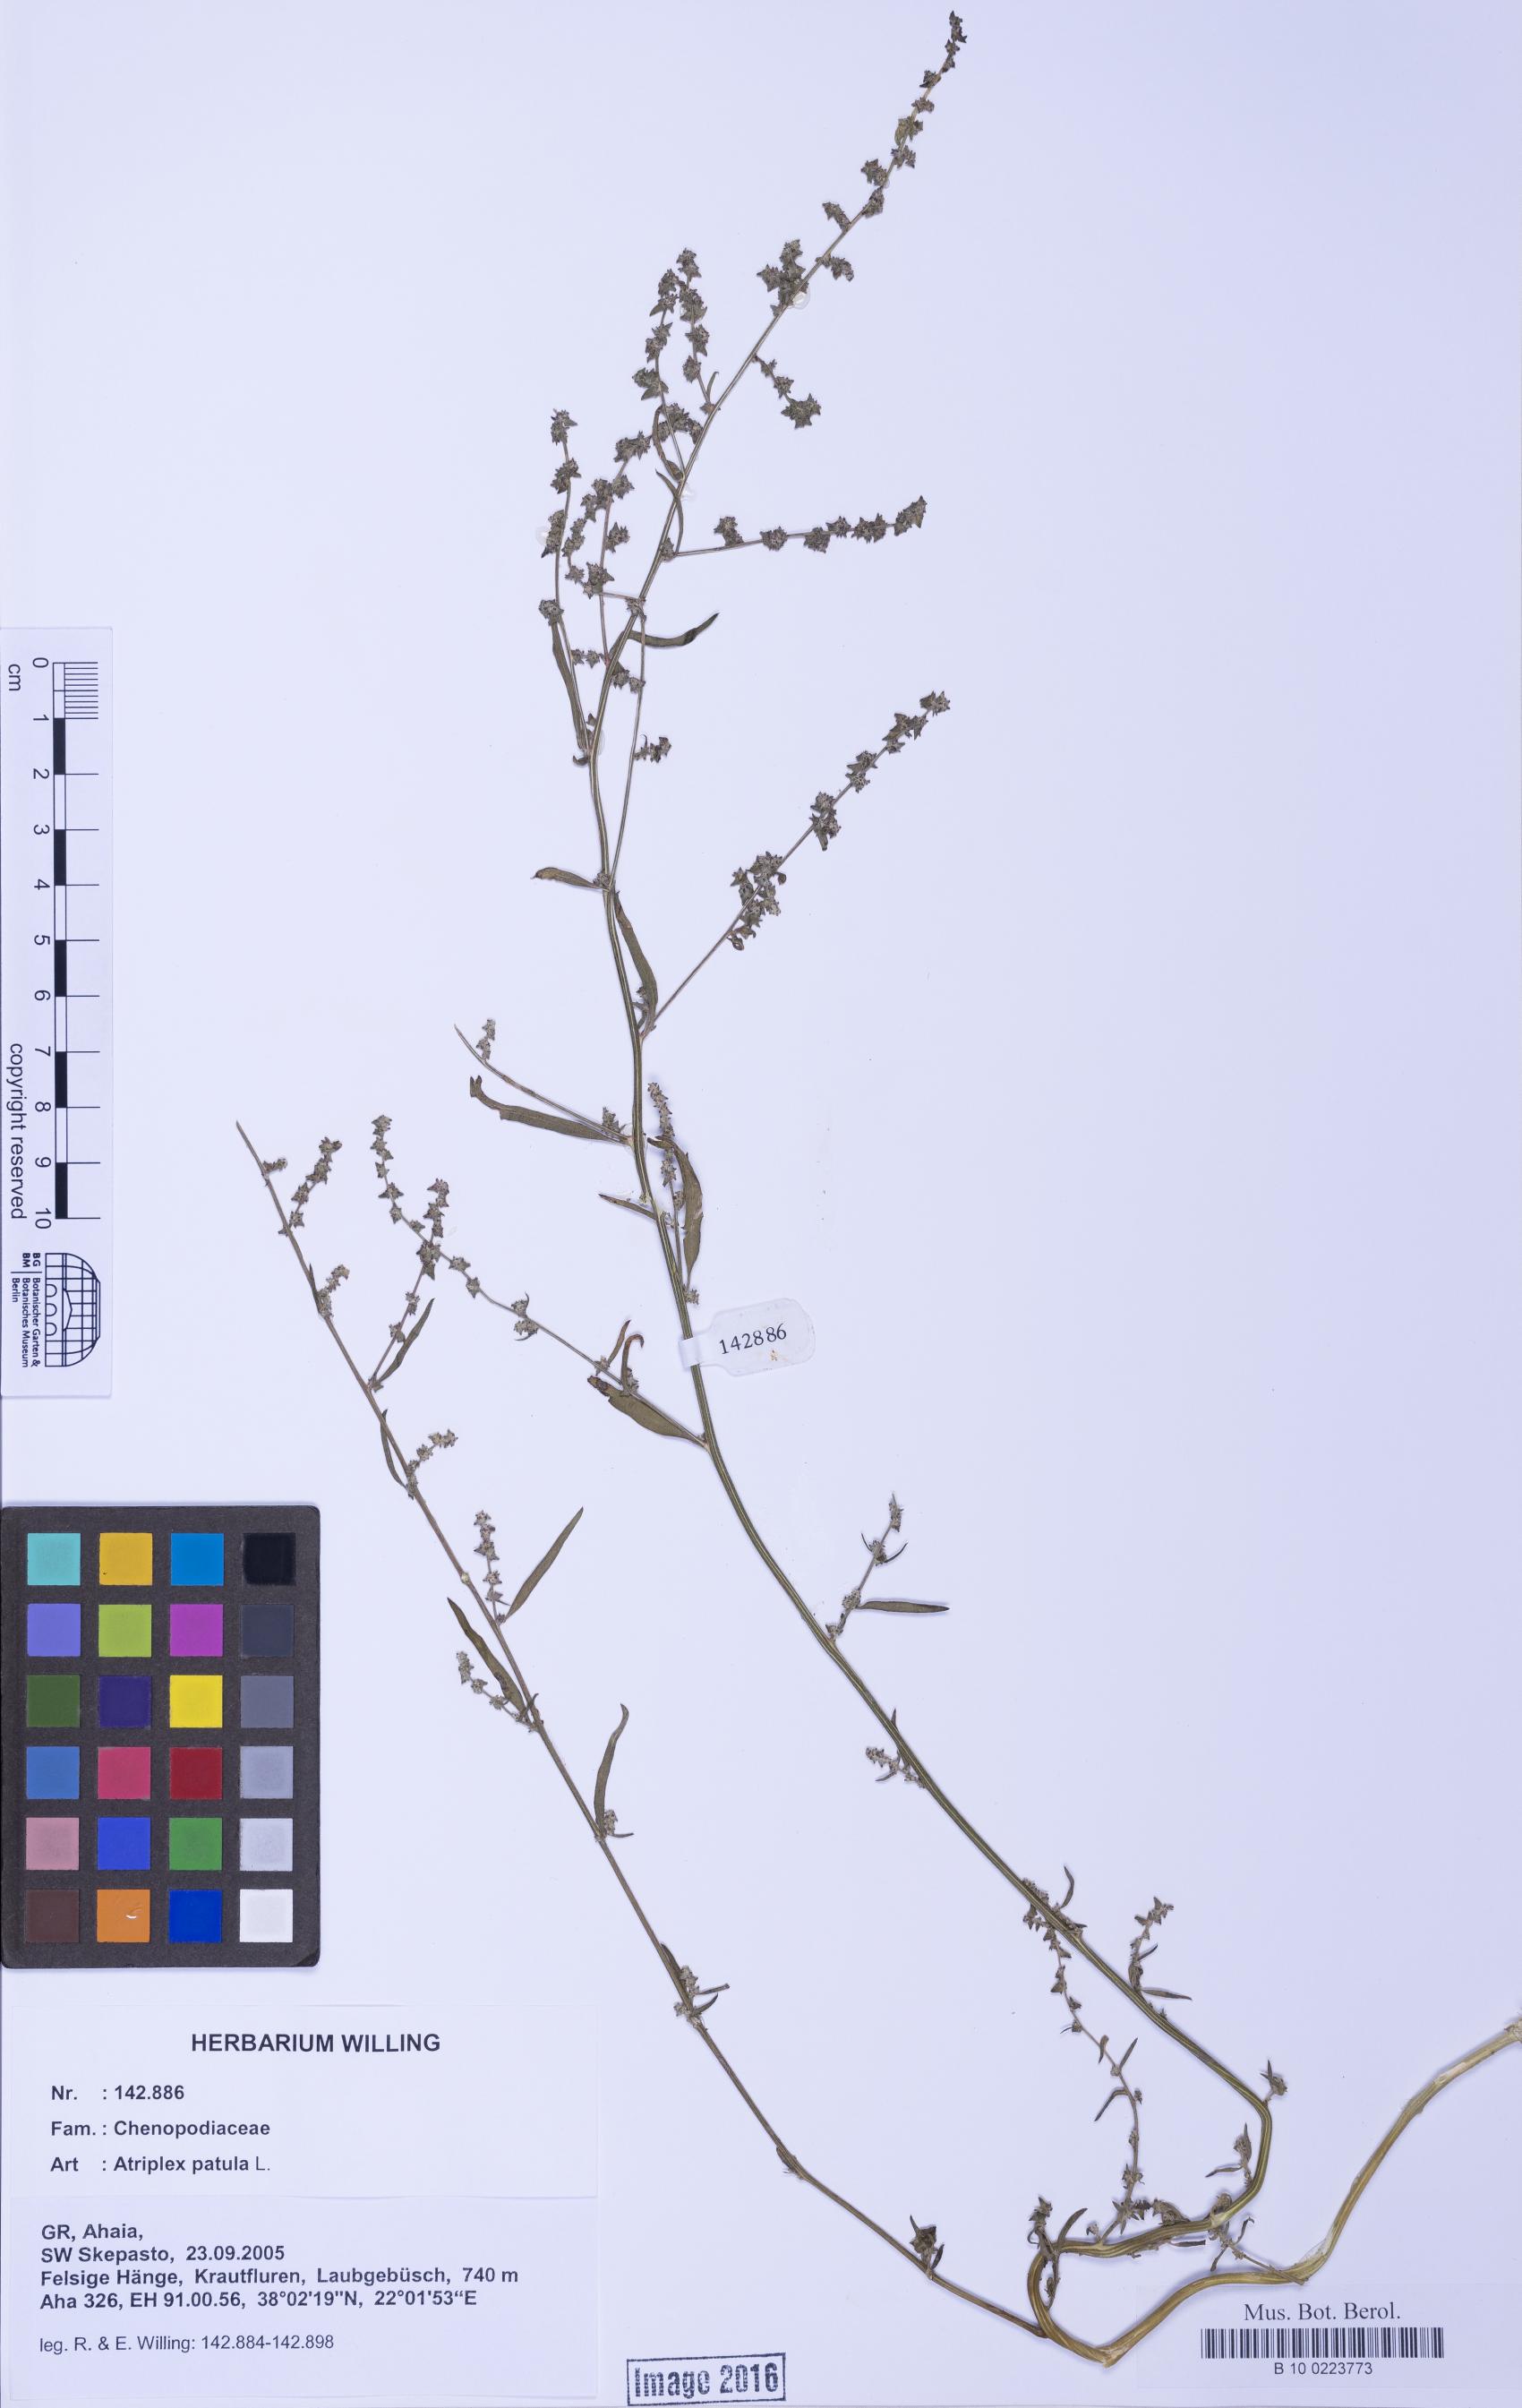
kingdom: Plantae
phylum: Tracheophyta
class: Magnoliopsida
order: Caryophyllales
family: Amaranthaceae
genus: Atriplex
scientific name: Atriplex patula
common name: Common orache
